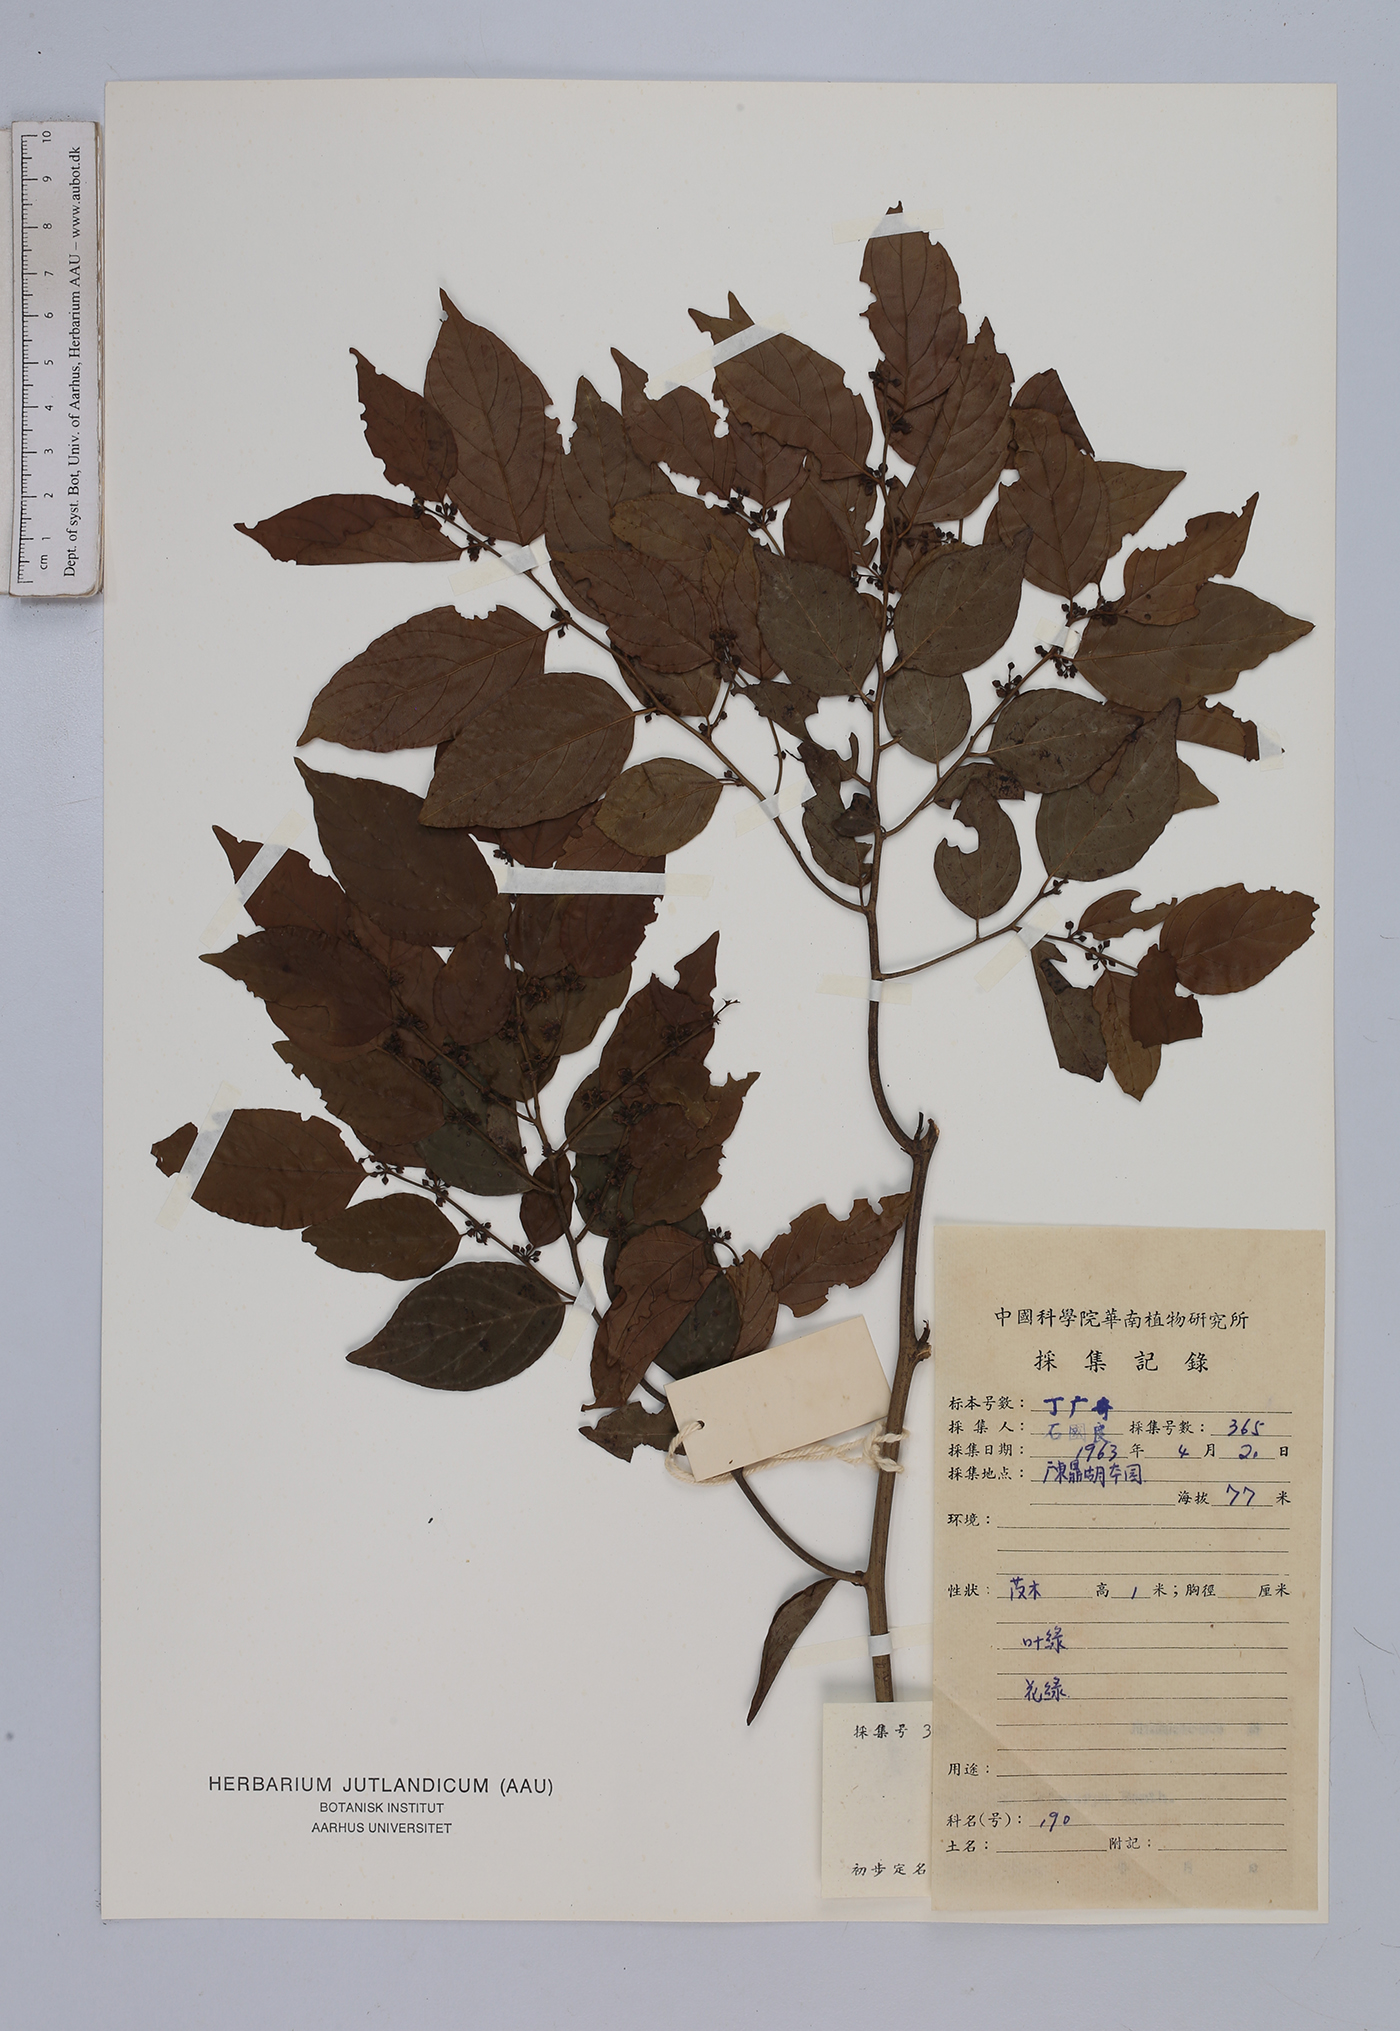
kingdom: Plantae
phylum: Tracheophyta
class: Magnoliopsida
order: Rosales
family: Rhamnaceae
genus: Ventilago
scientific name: Ventilago leiocarpa
